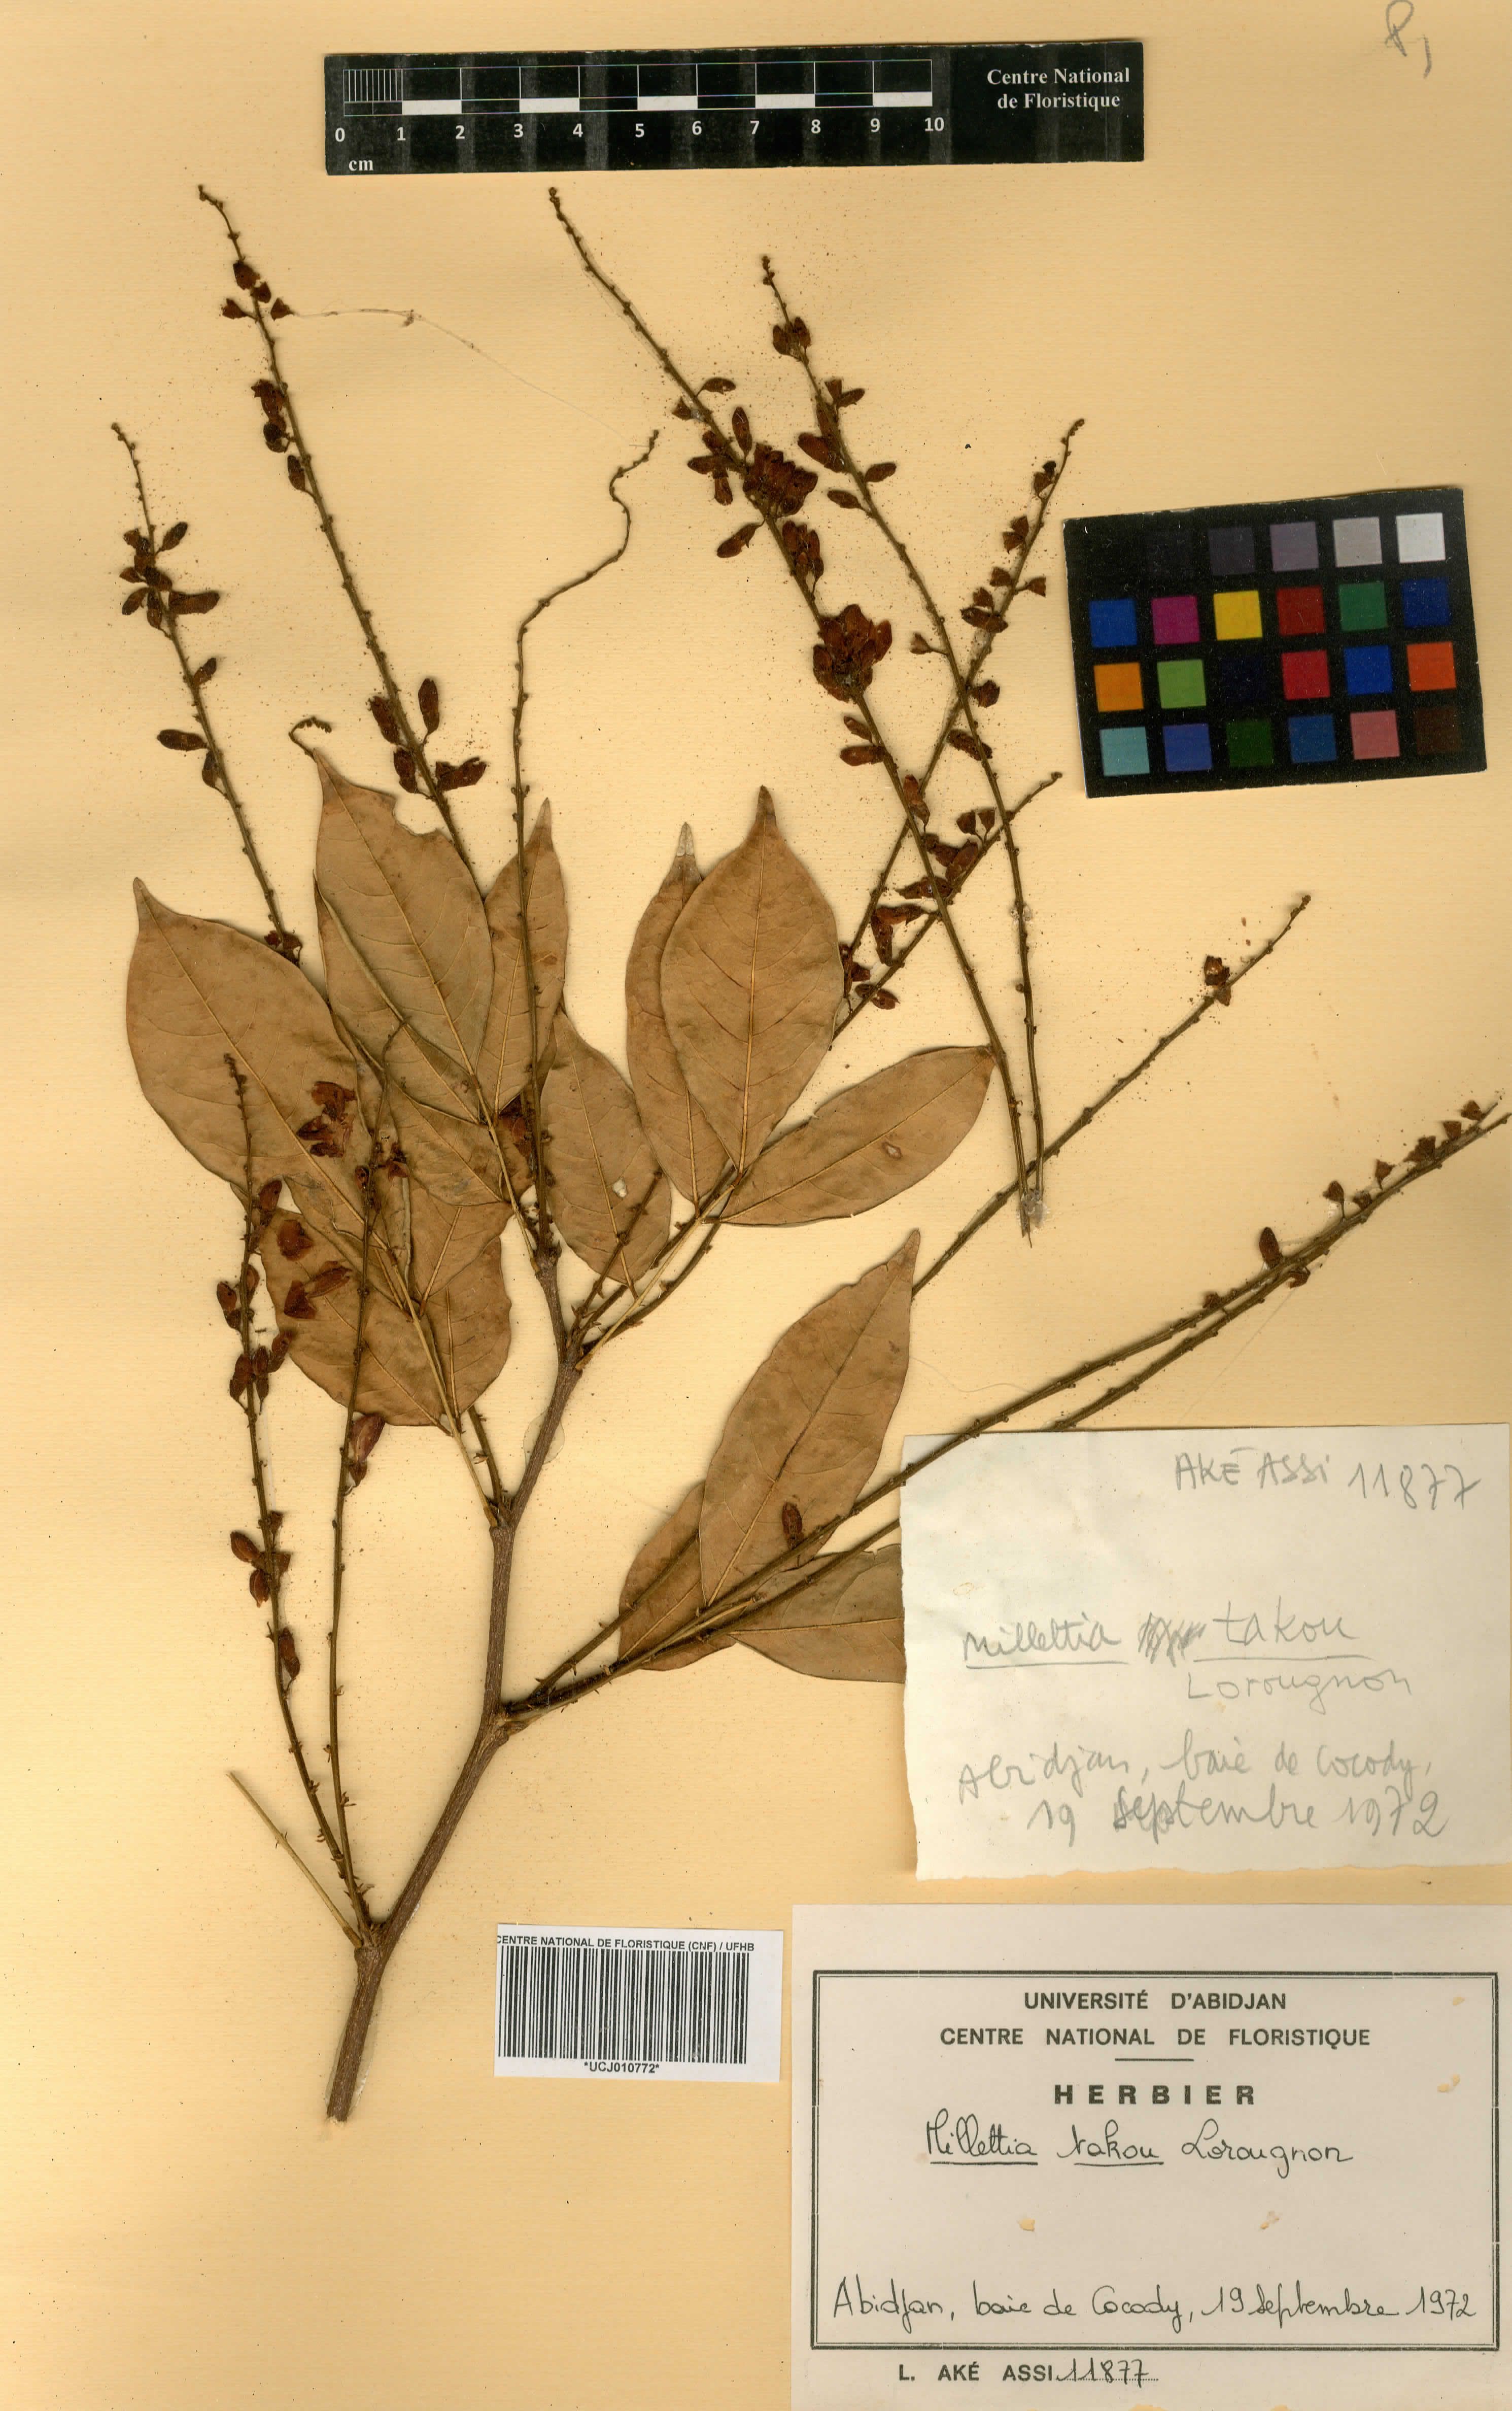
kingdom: Plantae
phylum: Tracheophyta
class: Magnoliopsida
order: Fabales
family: Fabaceae
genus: Millettia
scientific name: Millettia takou
